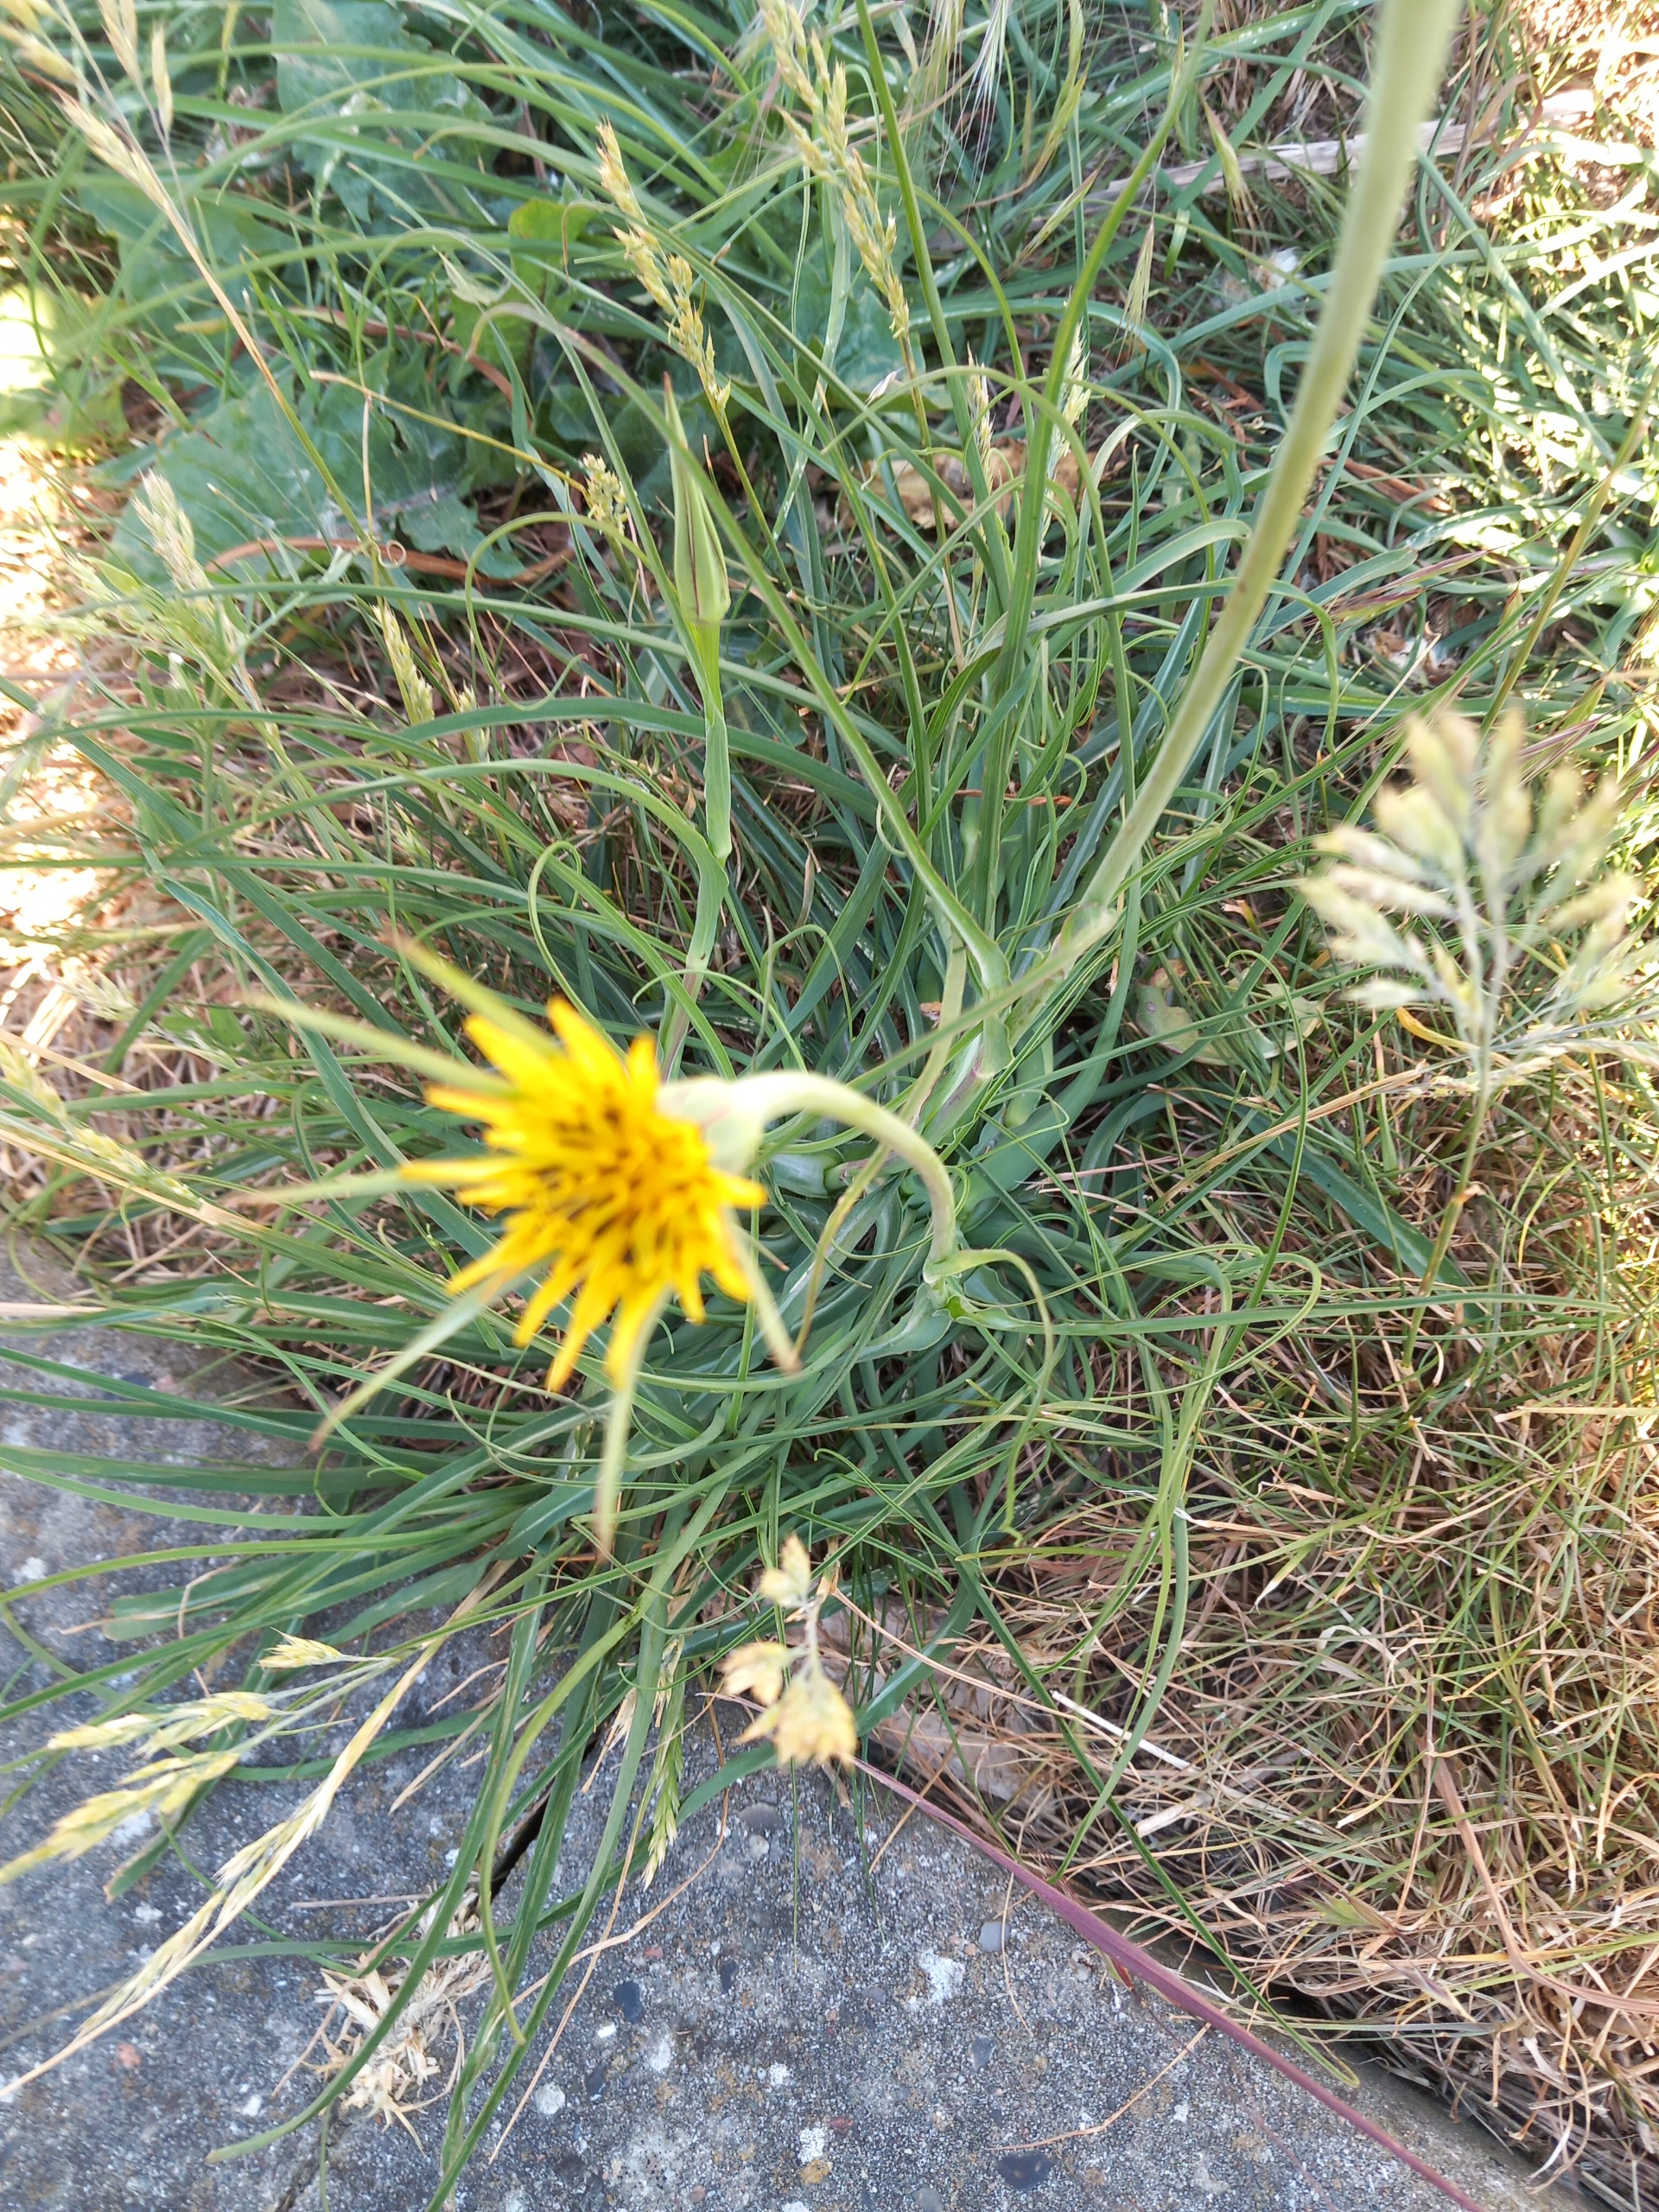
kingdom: Plantae
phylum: Tracheophyta
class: Magnoliopsida
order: Asterales
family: Asteraceae
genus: Tragopogon
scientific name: Tragopogon minor
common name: Småkronet gedeskæg
